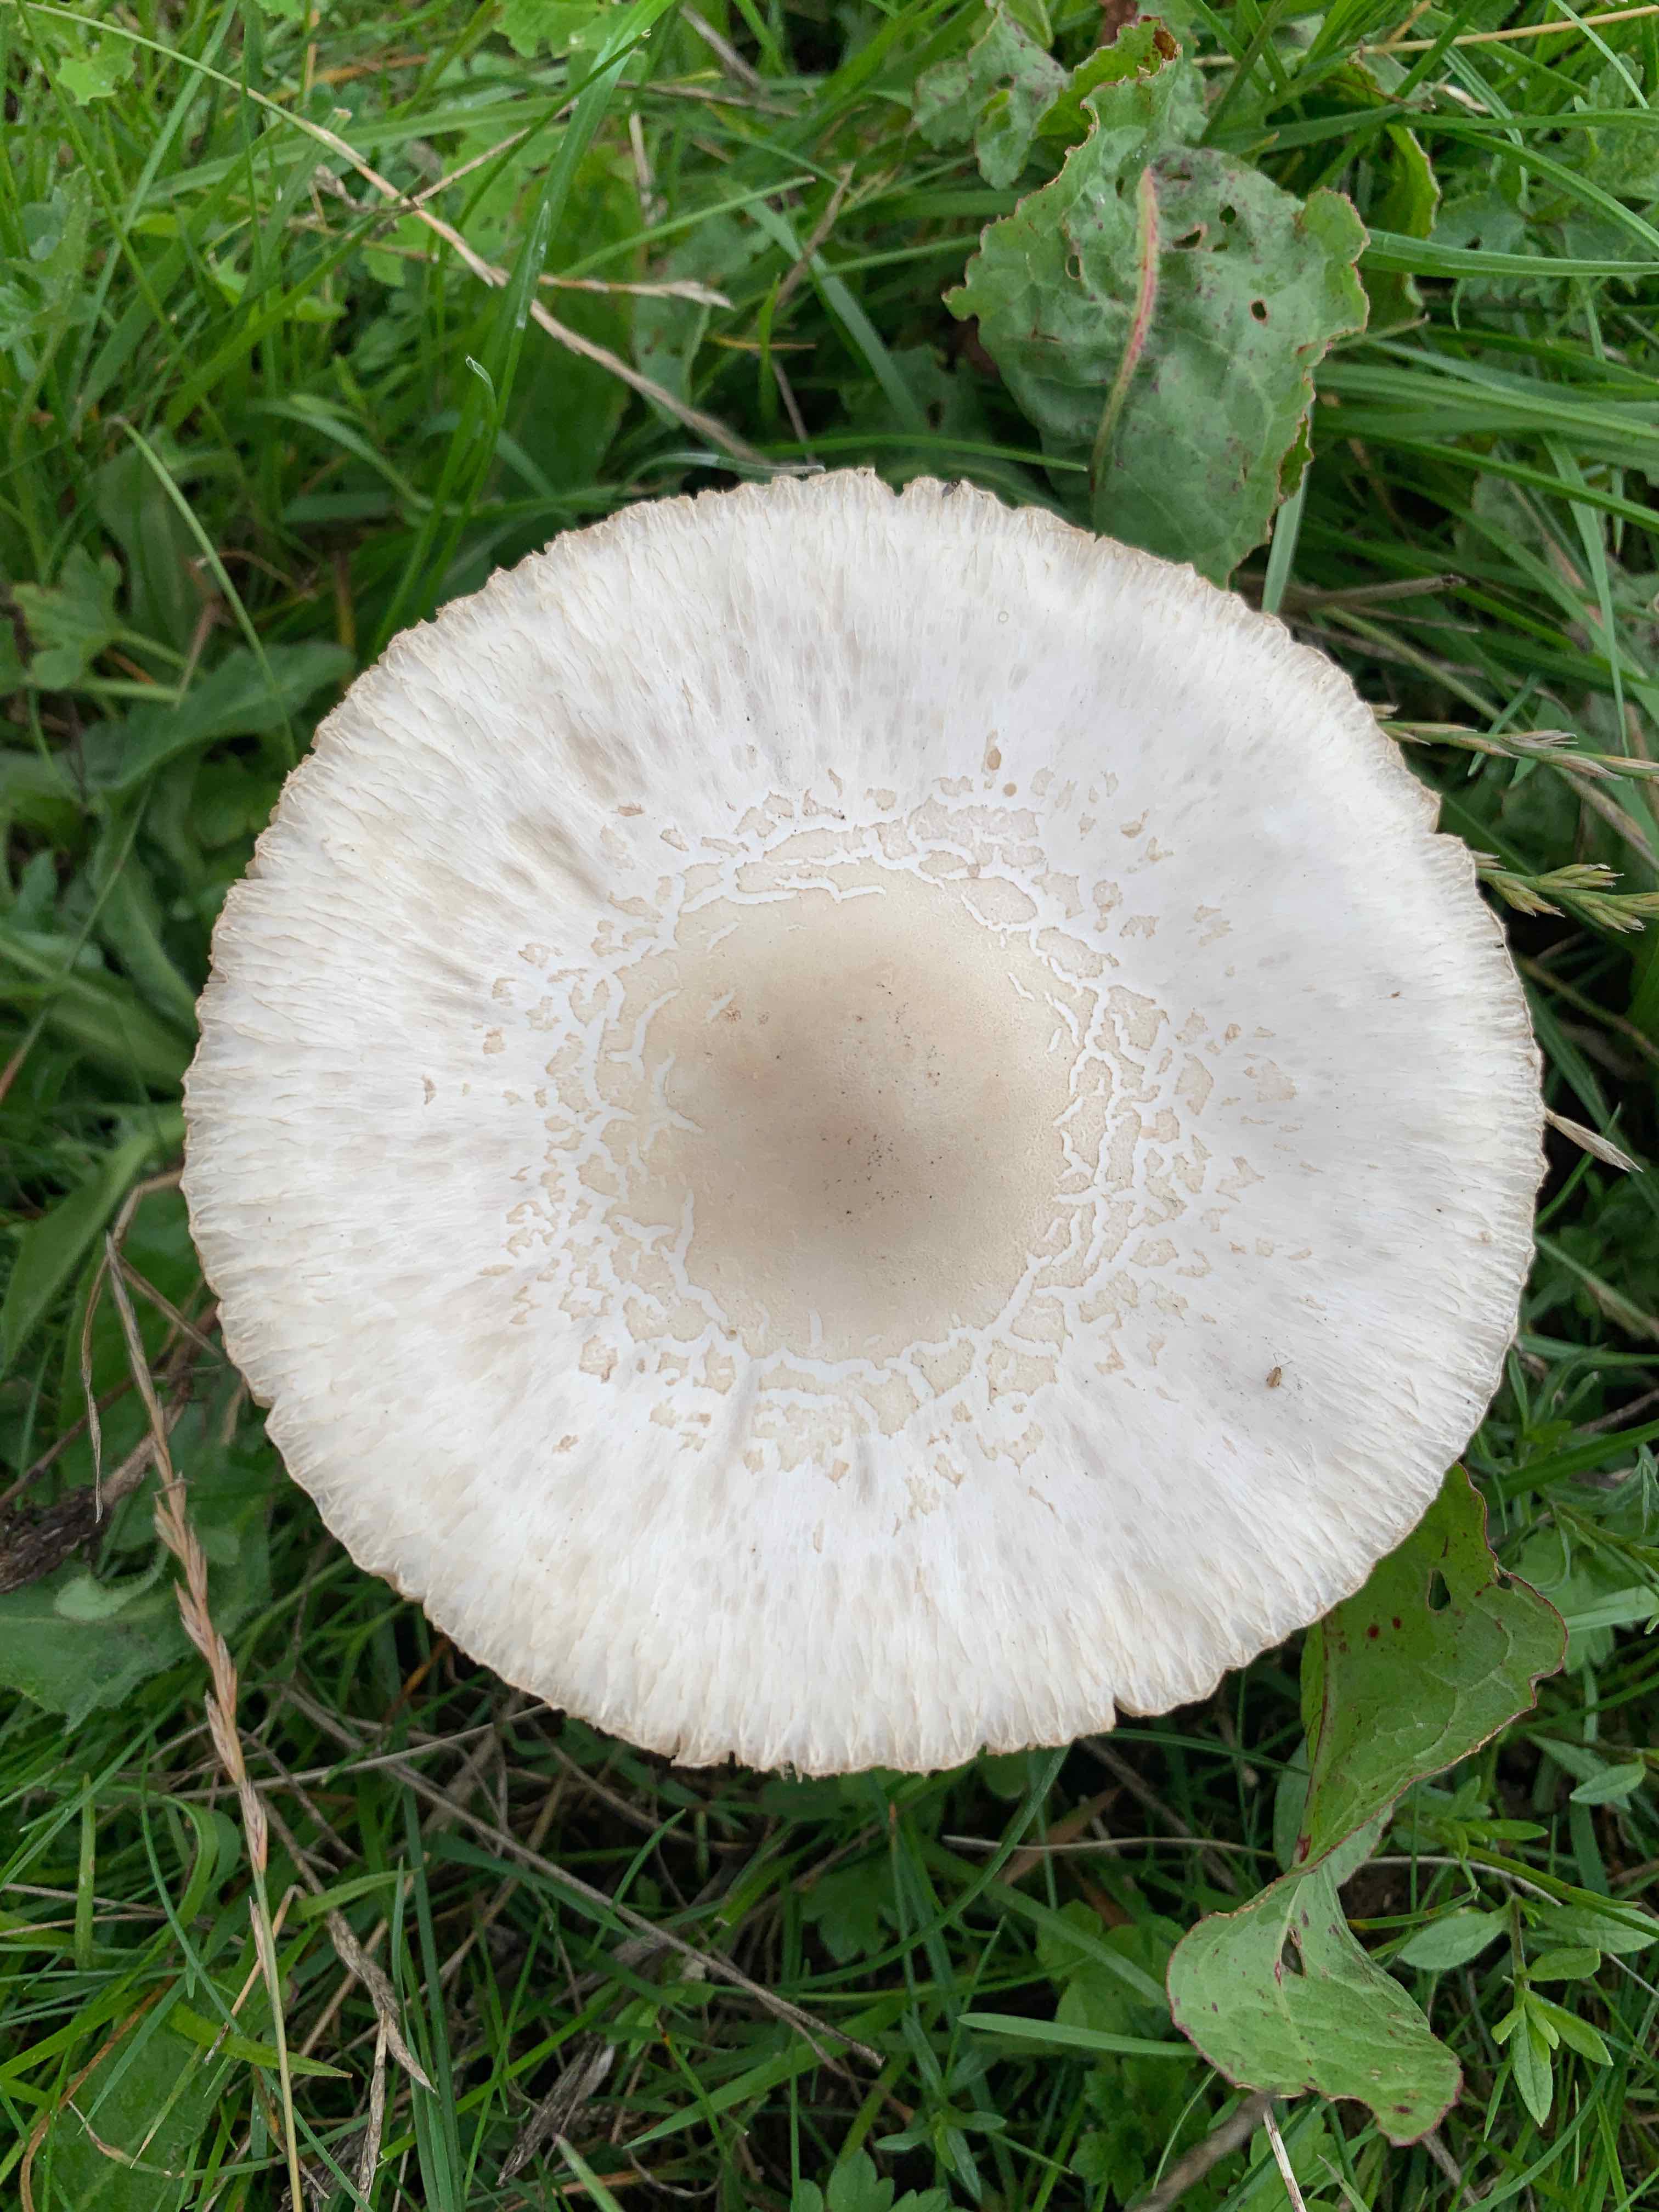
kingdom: Fungi
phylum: Basidiomycota
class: Agaricomycetes
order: Agaricales
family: Agaricaceae
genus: Macrolepiota
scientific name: Macrolepiota excoriata
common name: mark-kæmpeparasolhat
